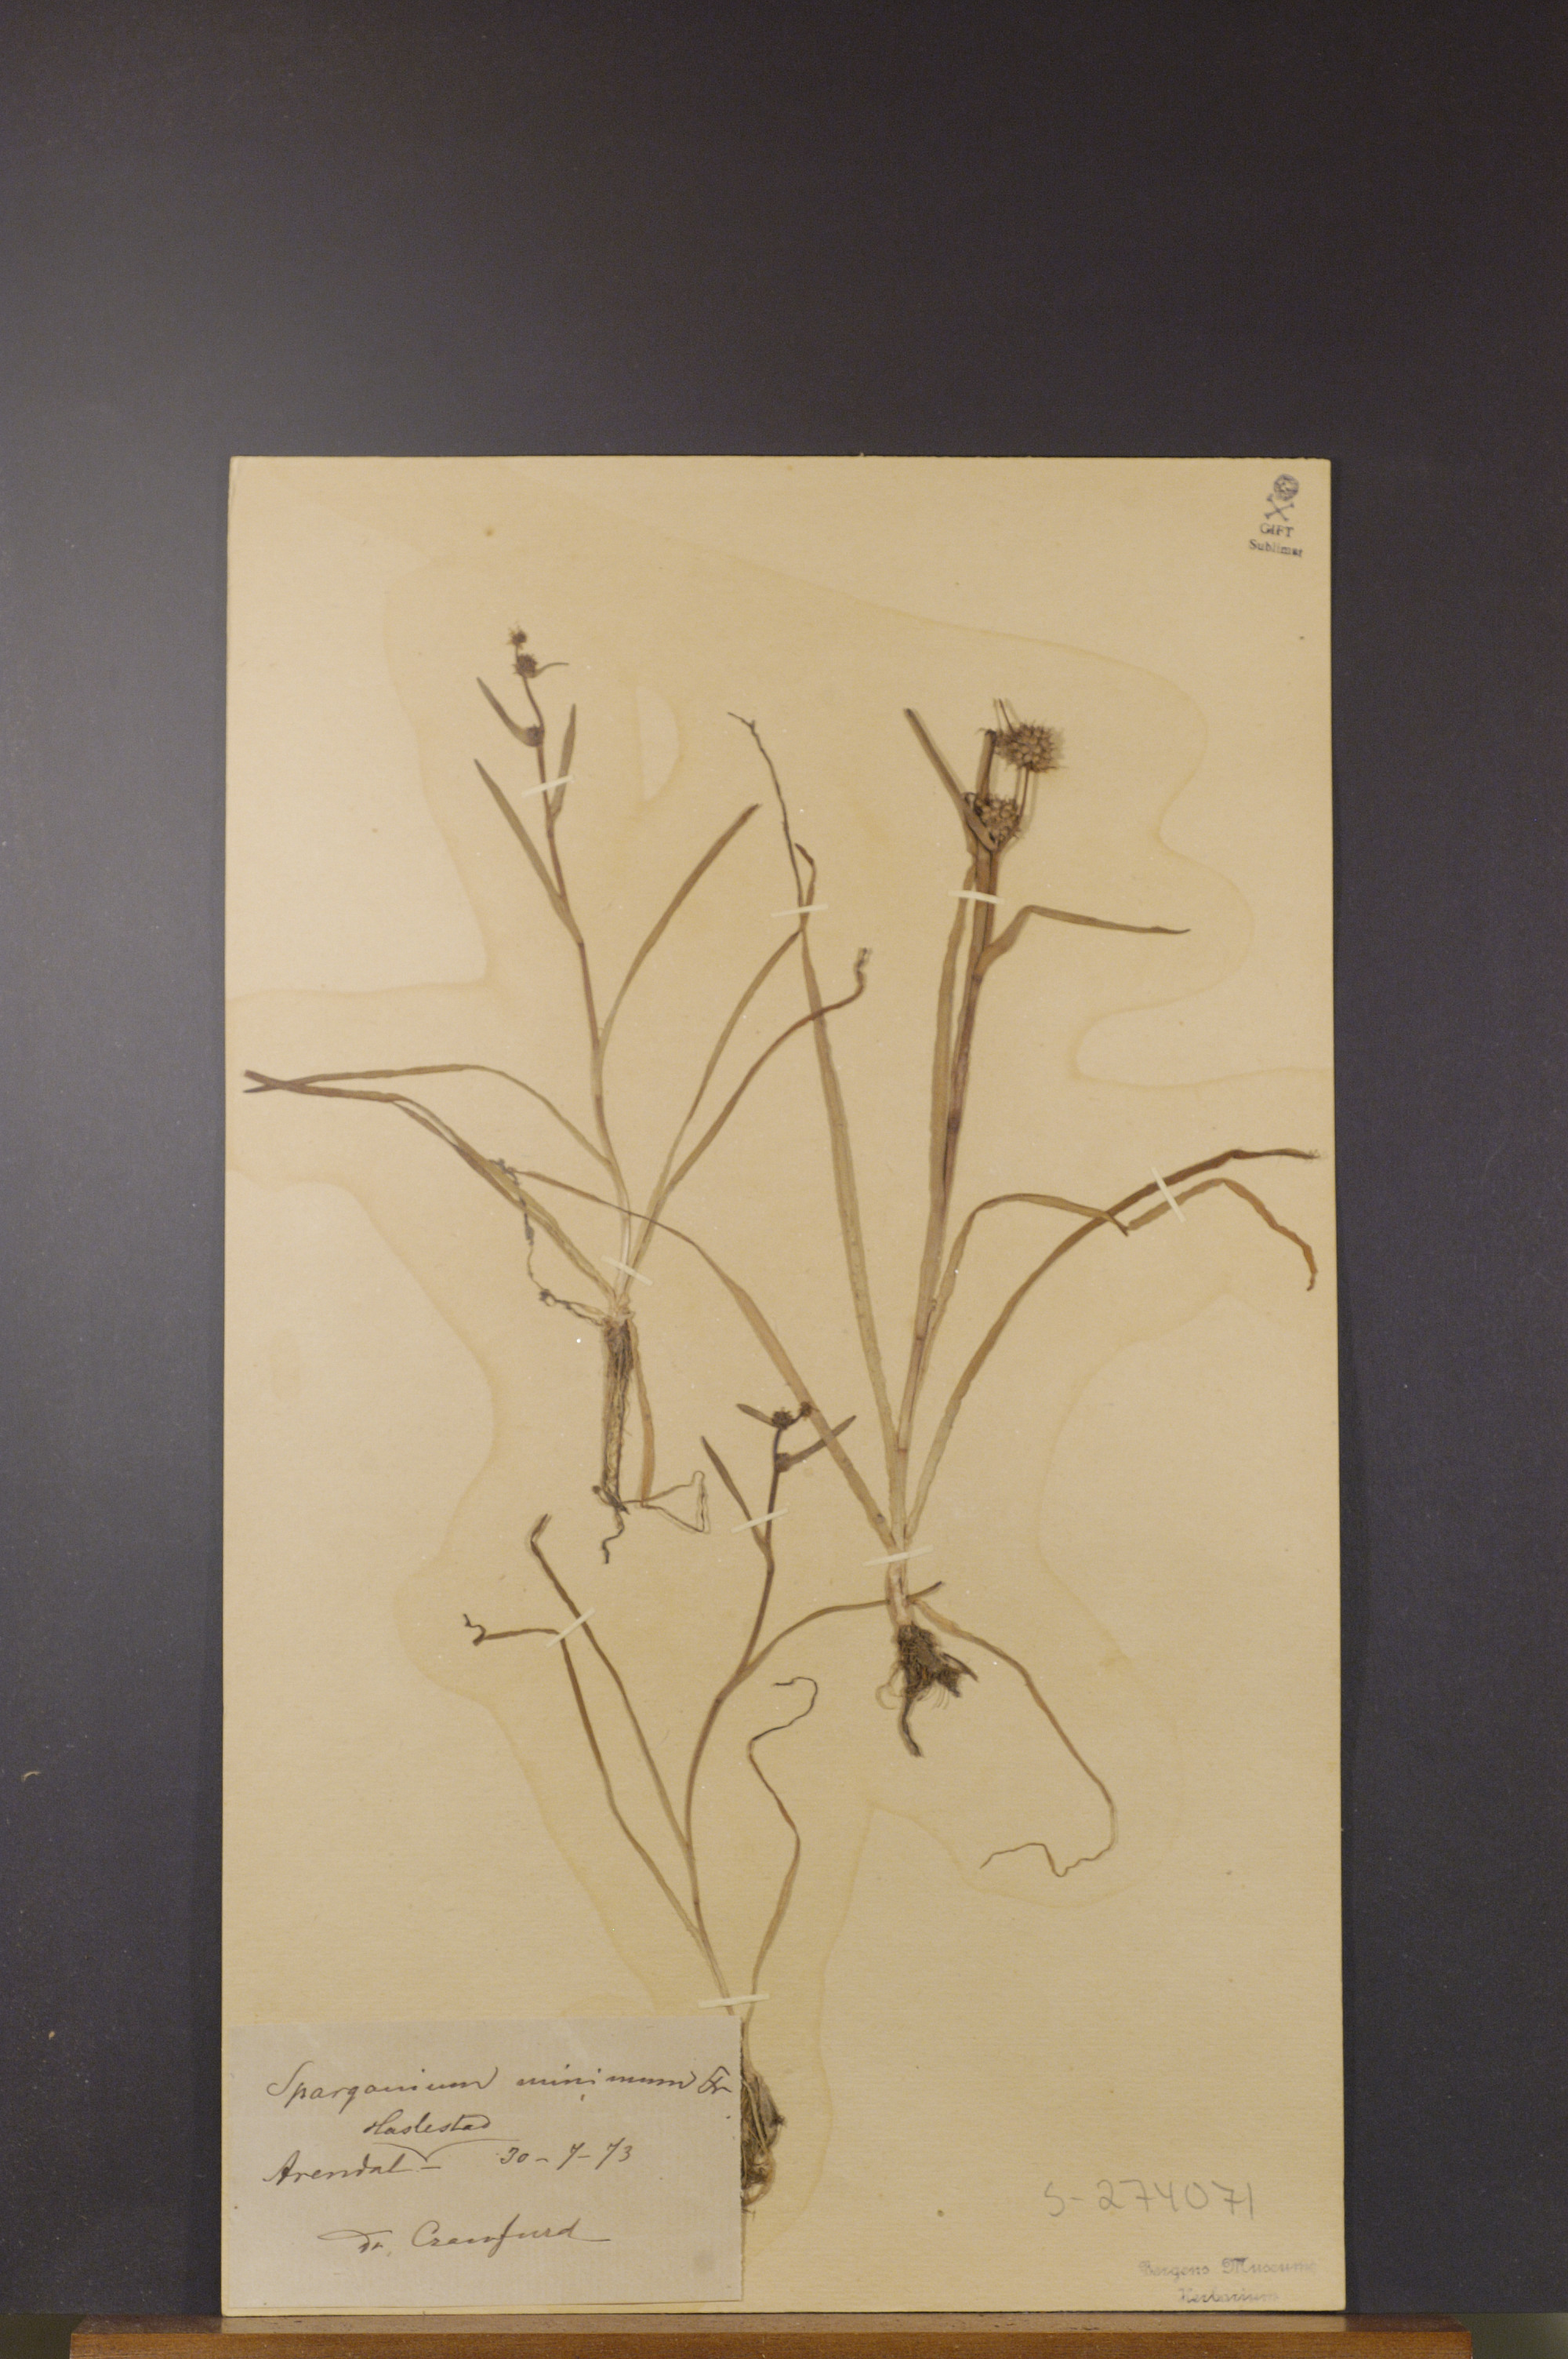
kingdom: Plantae
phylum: Tracheophyta
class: Liliopsida
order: Poales
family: Typhaceae
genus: Sparganium
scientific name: Sparganium natans
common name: Least bur-reed
